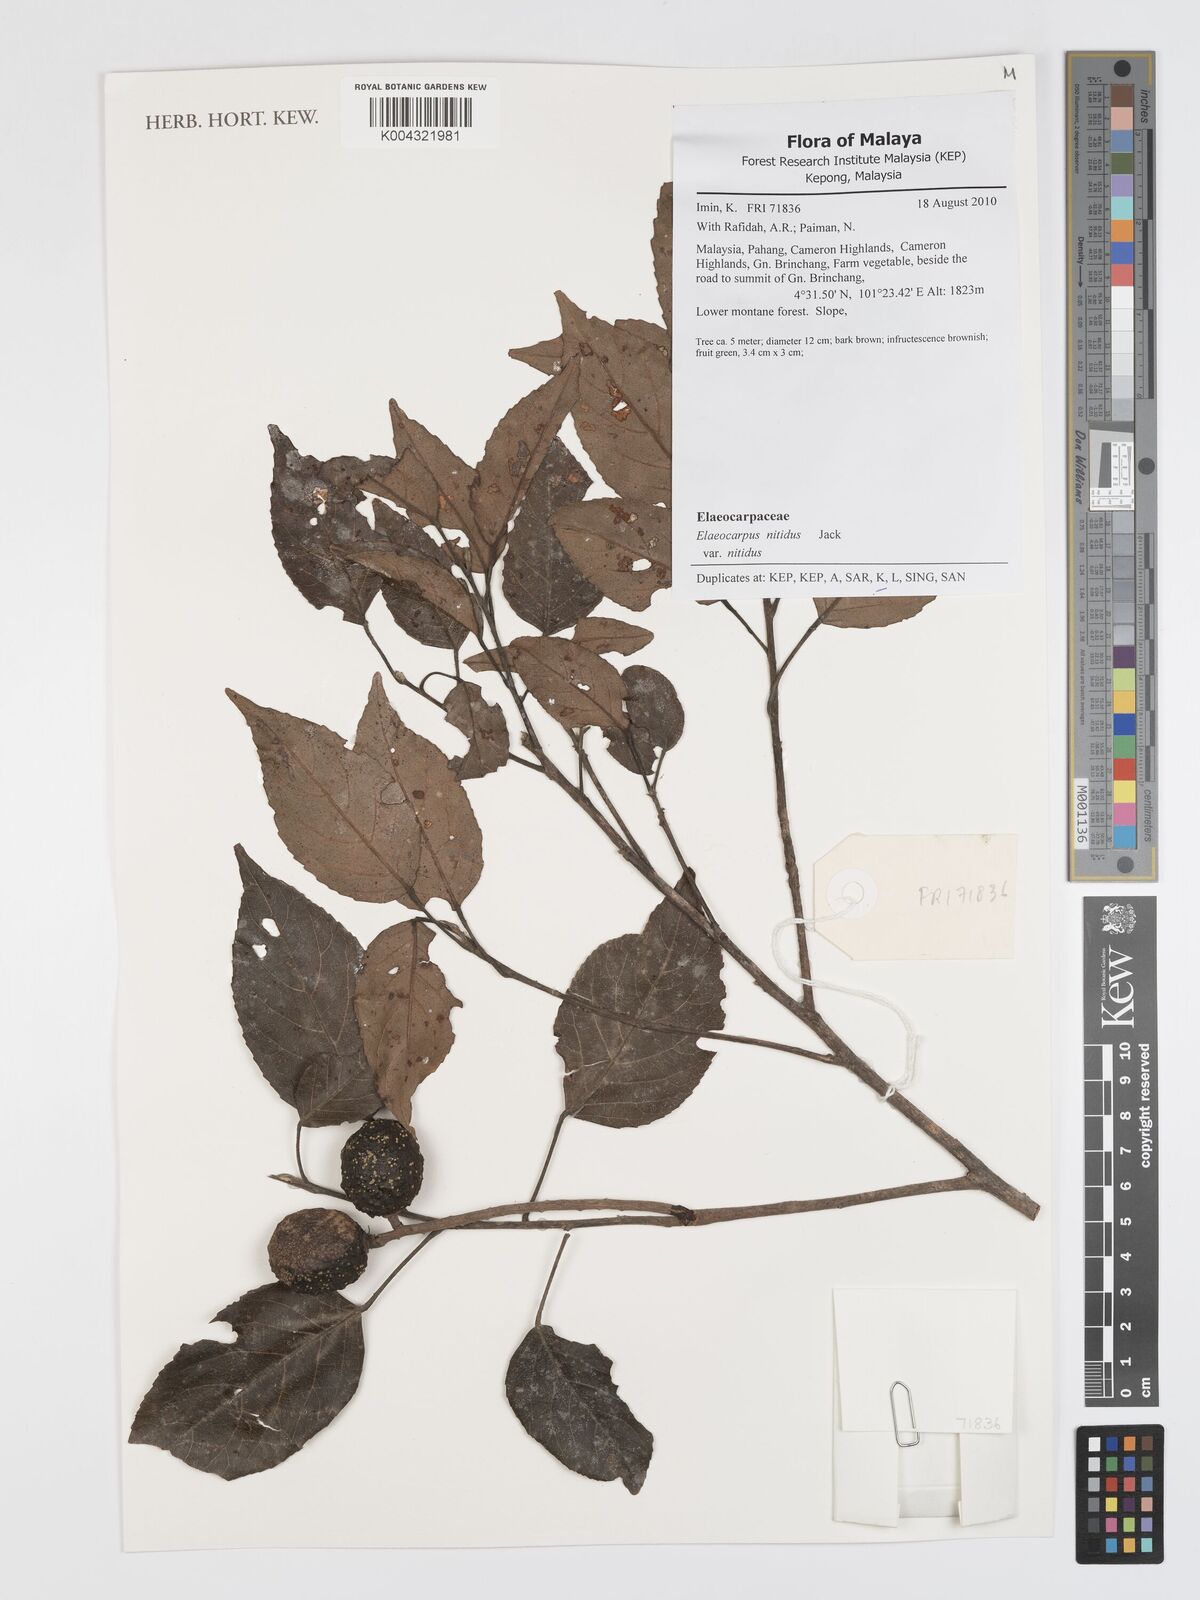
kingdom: Plantae
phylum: Tracheophyta
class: Magnoliopsida
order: Oxalidales
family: Elaeocarpaceae
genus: Elaeocarpus
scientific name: Elaeocarpus nitidus
